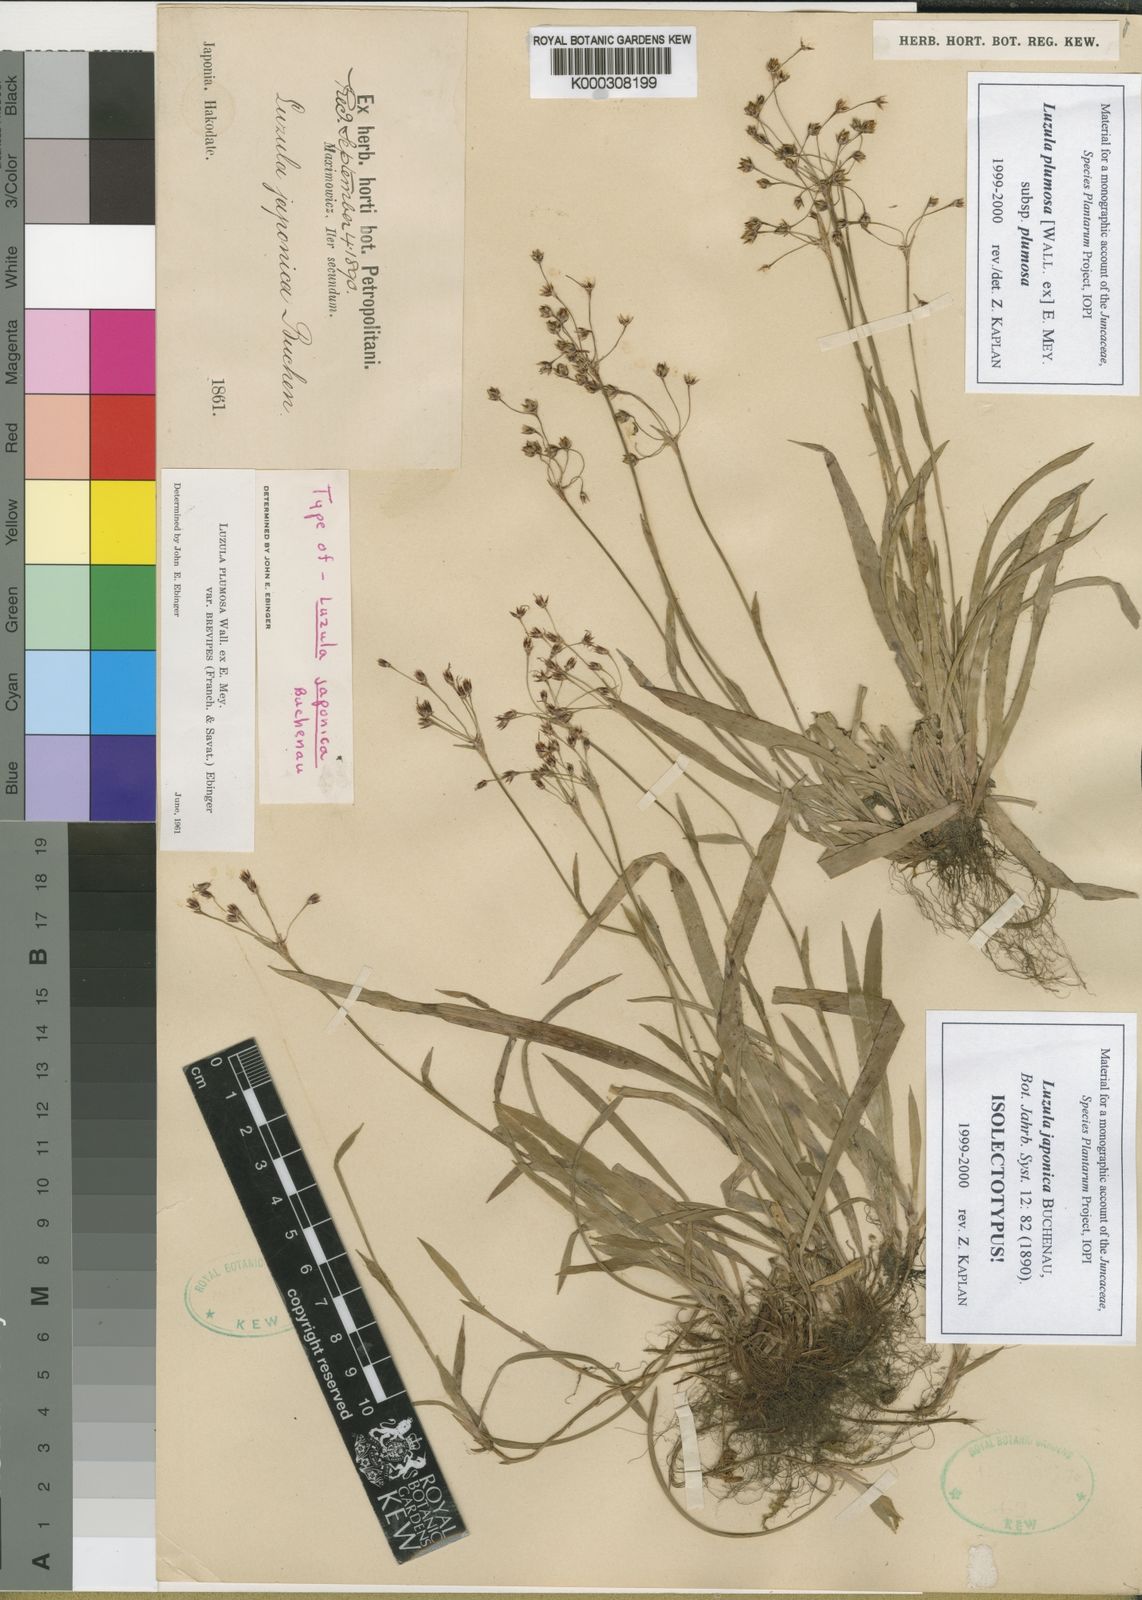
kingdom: Plantae
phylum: Tracheophyta
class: Liliopsida
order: Poales
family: Juncaceae
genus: Luzula
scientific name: Luzula plumosa
